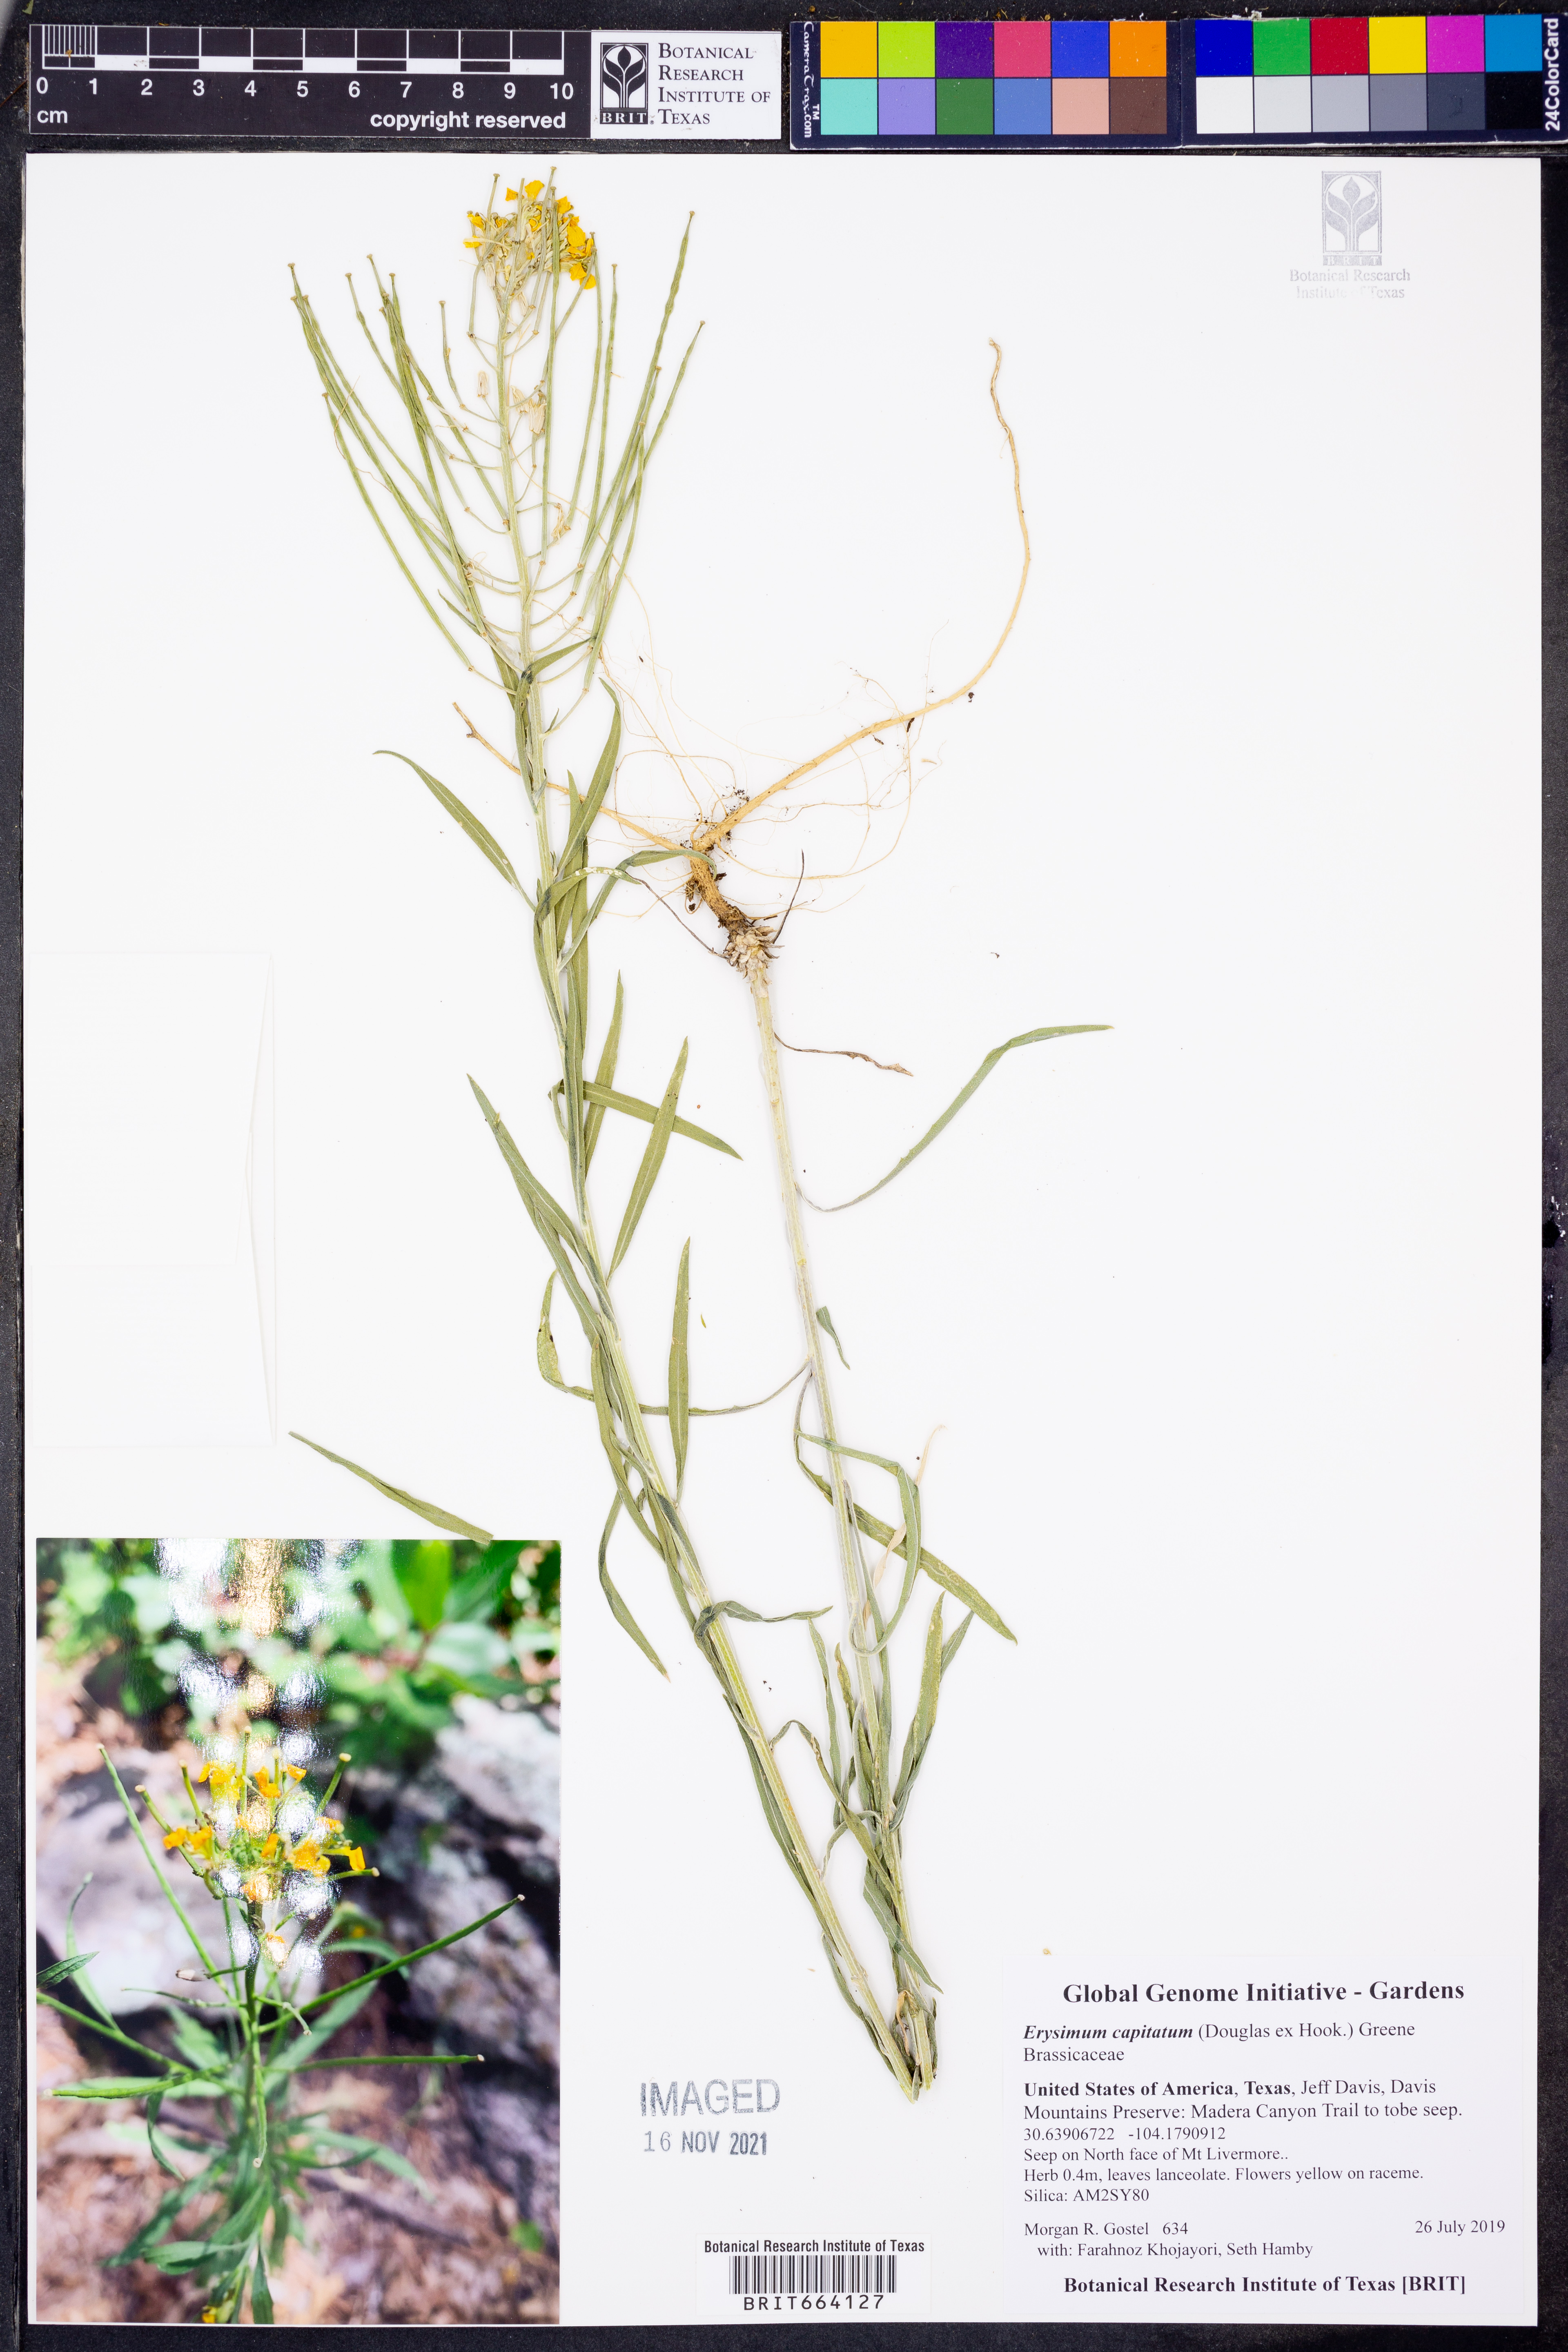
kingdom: Plantae
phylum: Tracheophyta
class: Magnoliopsida
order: Brassicales
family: Brassicaceae
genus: Erysimum
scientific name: Erysimum capitatum
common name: Western wallflower
